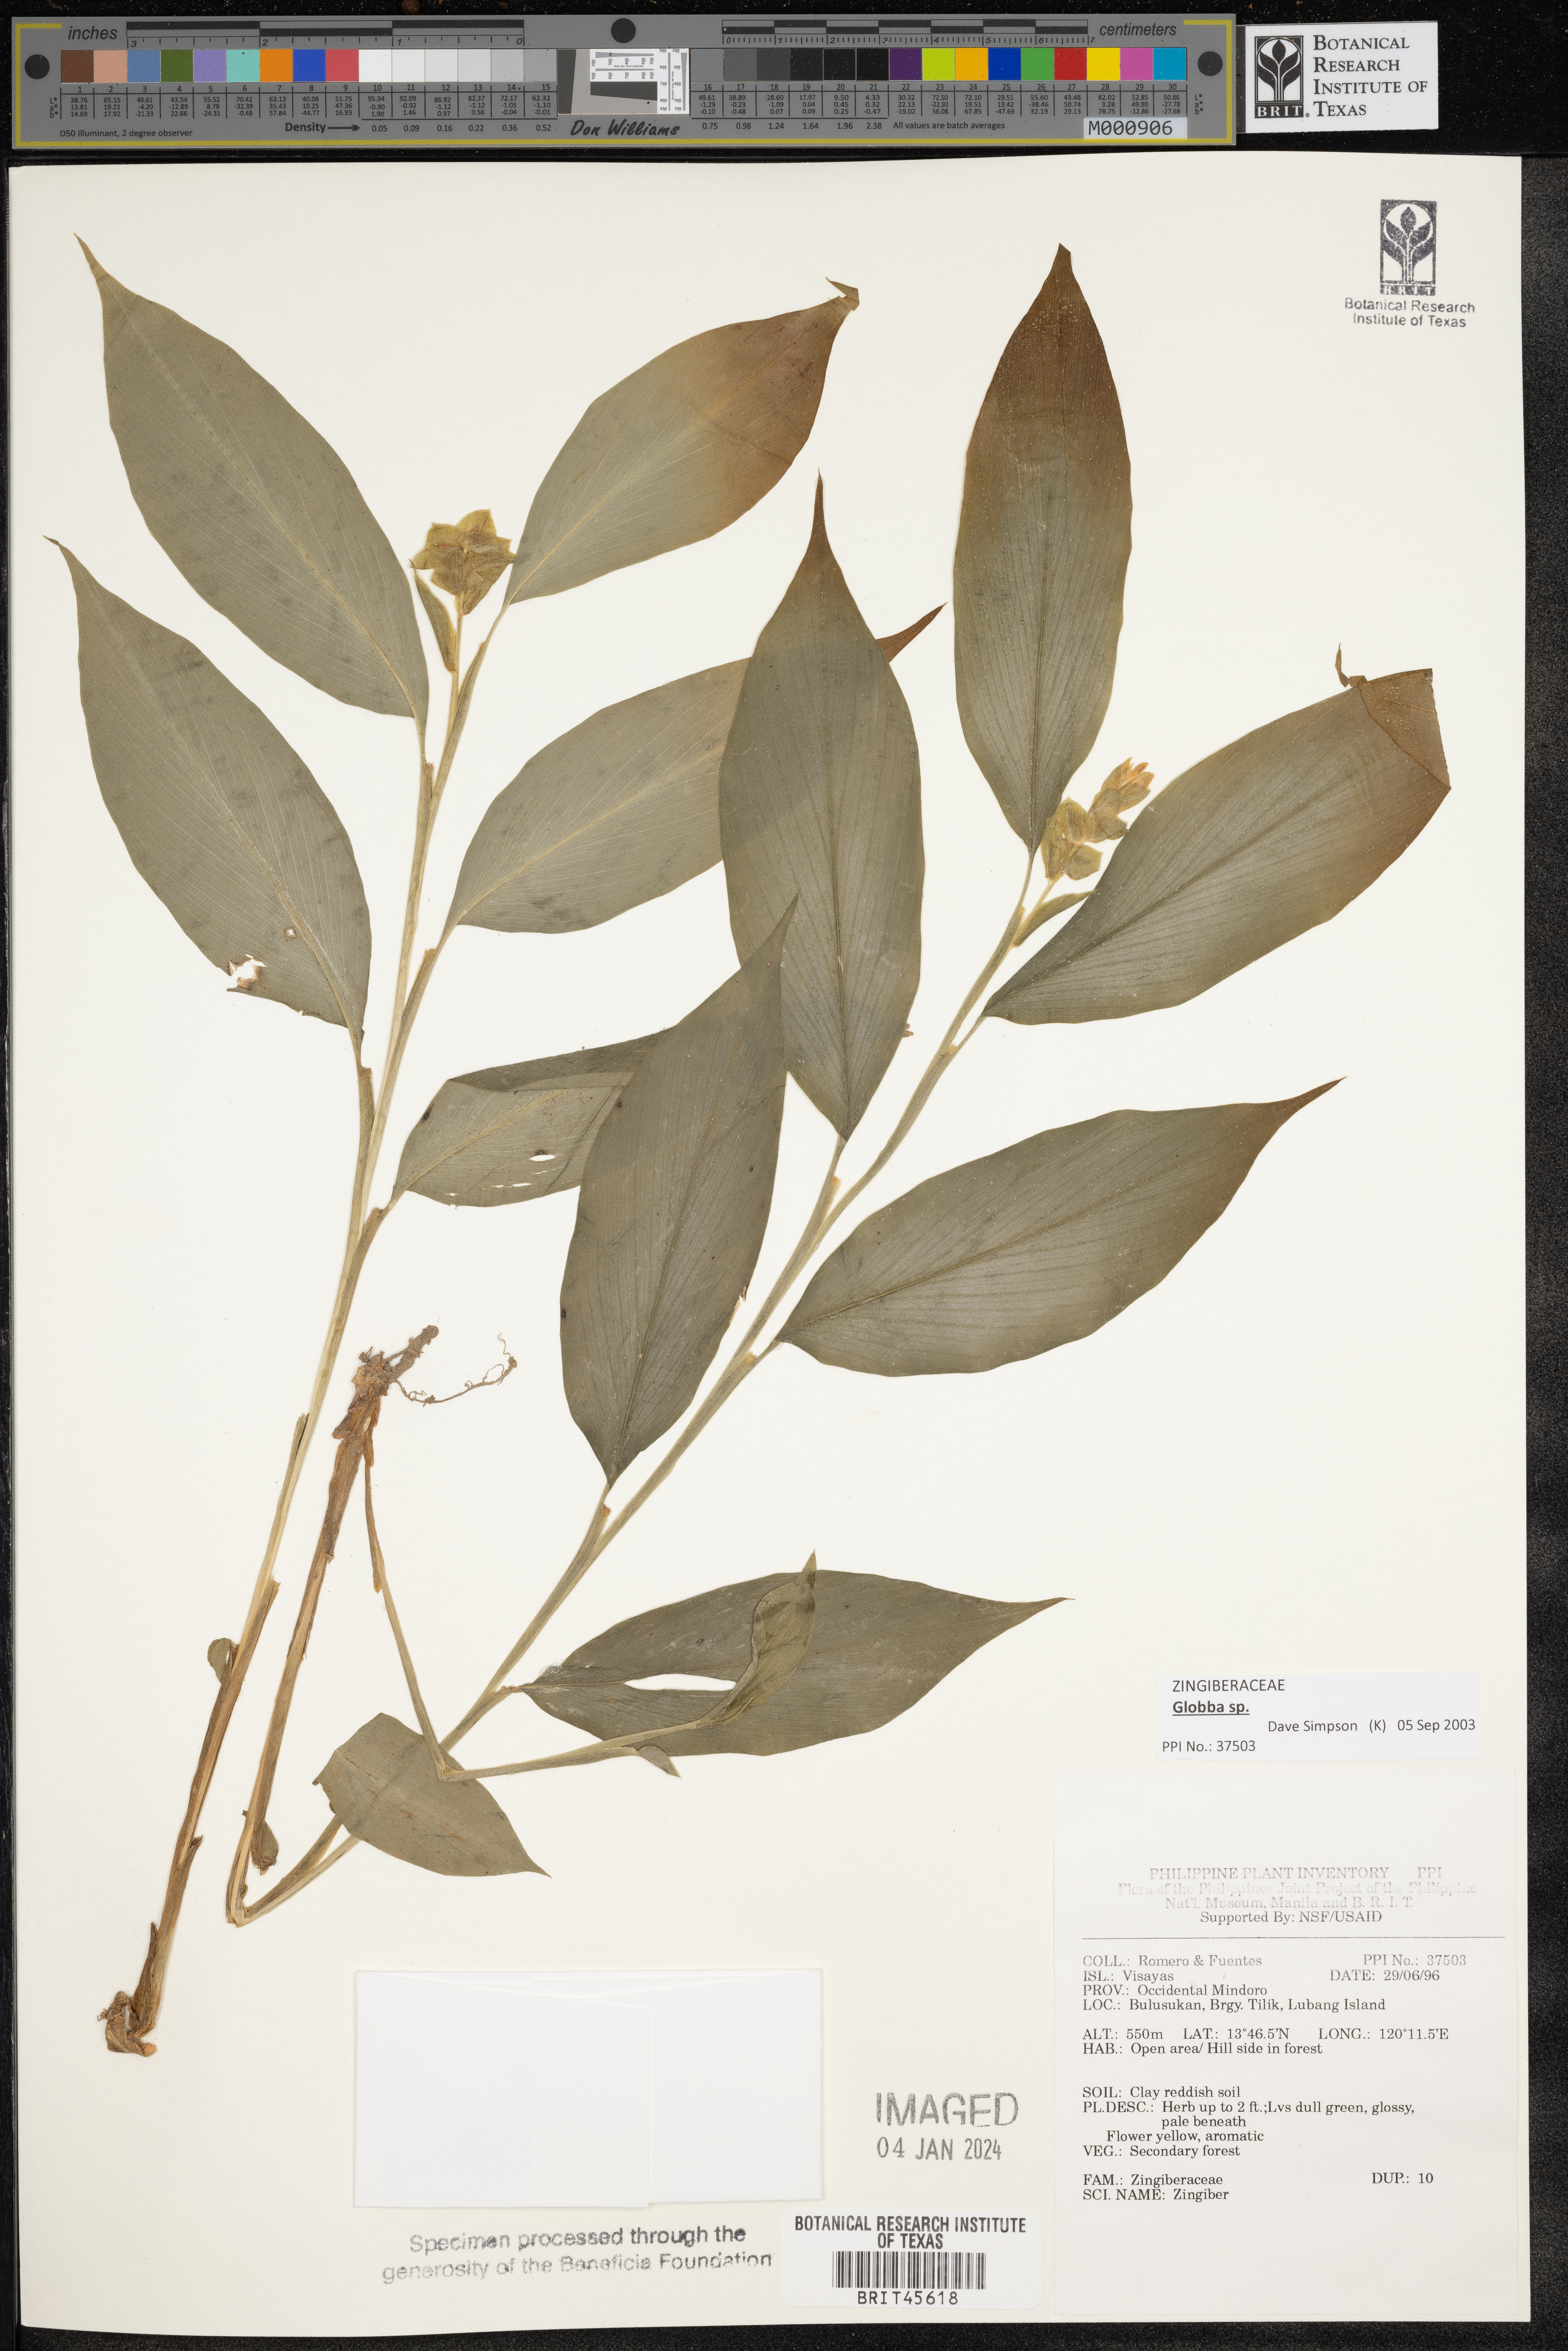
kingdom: Plantae
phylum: Tracheophyta
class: Liliopsida
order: Zingiberales
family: Zingiberaceae
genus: Zingiber
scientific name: Zingiber
